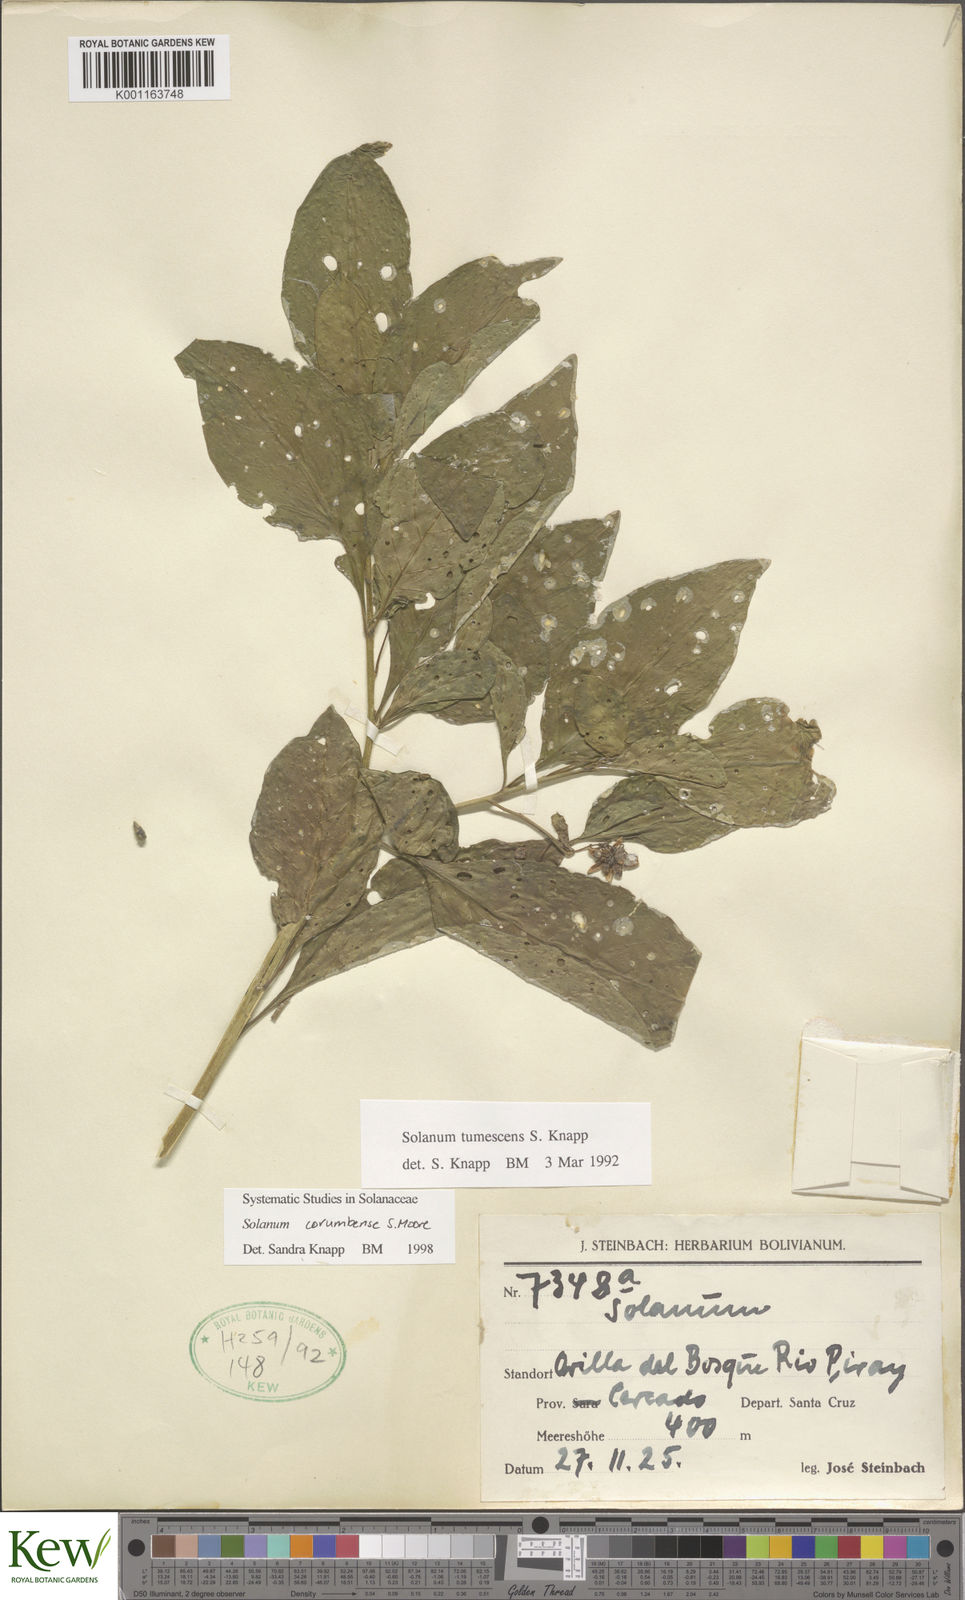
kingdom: Plantae
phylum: Tracheophyta
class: Magnoliopsida
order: Solanales
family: Solanaceae
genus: Solanum
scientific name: Solanum corumbense
